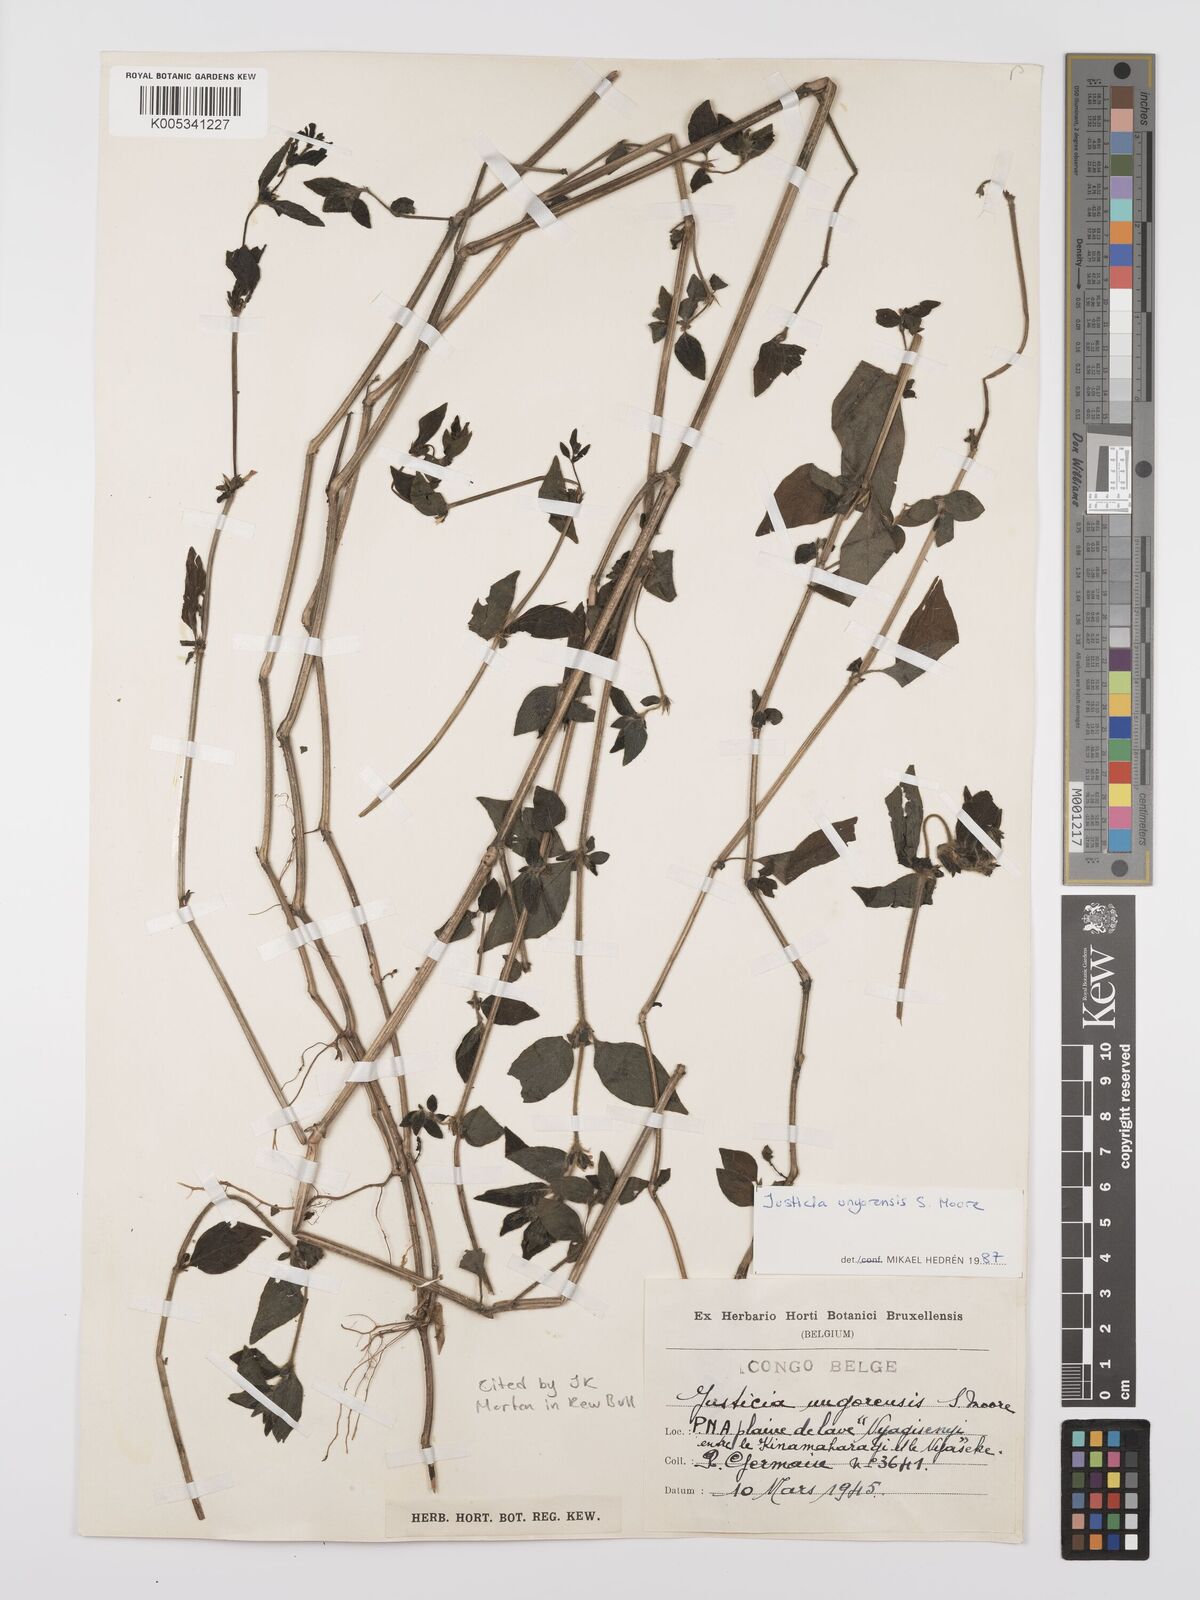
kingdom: Plantae
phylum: Tracheophyta
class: Magnoliopsida
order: Lamiales
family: Acanthaceae
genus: Justicia
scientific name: Justicia unyorensis
